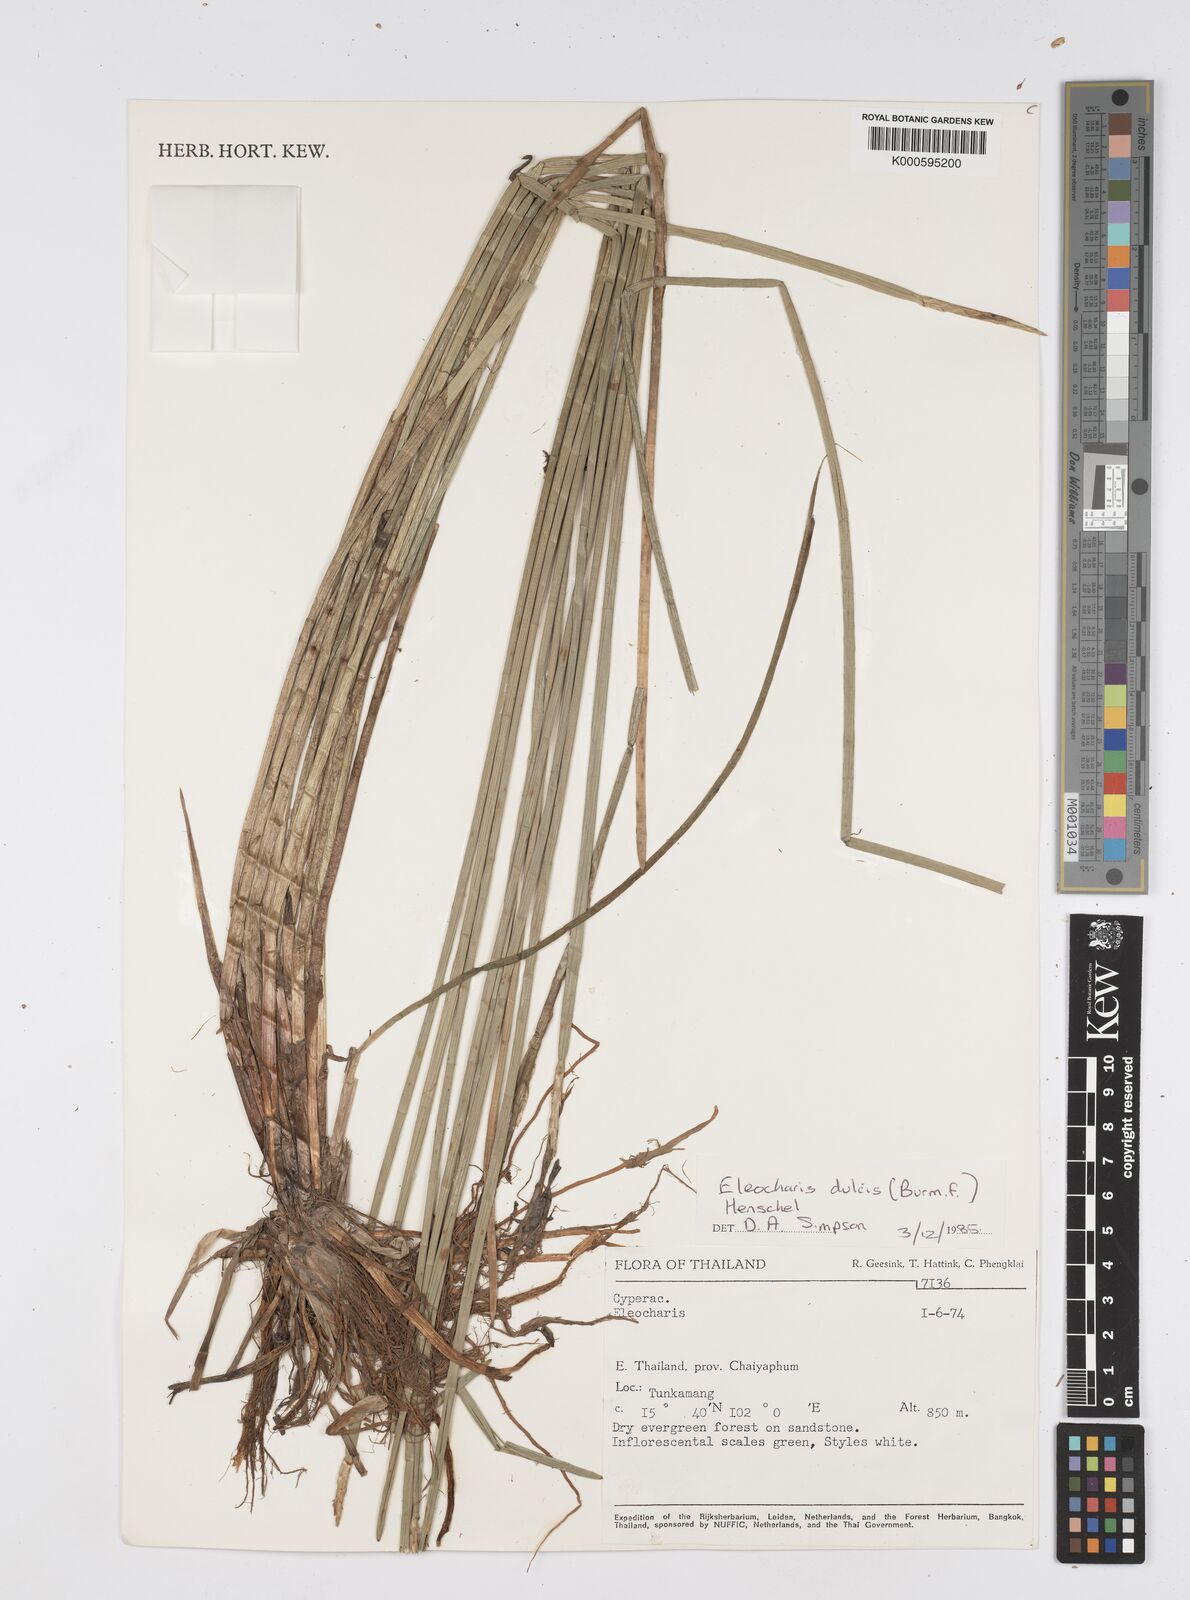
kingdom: Plantae
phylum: Tracheophyta
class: Liliopsida
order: Poales
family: Cyperaceae
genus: Eleocharis
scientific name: Eleocharis dulcis
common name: Chinese water chestnut
